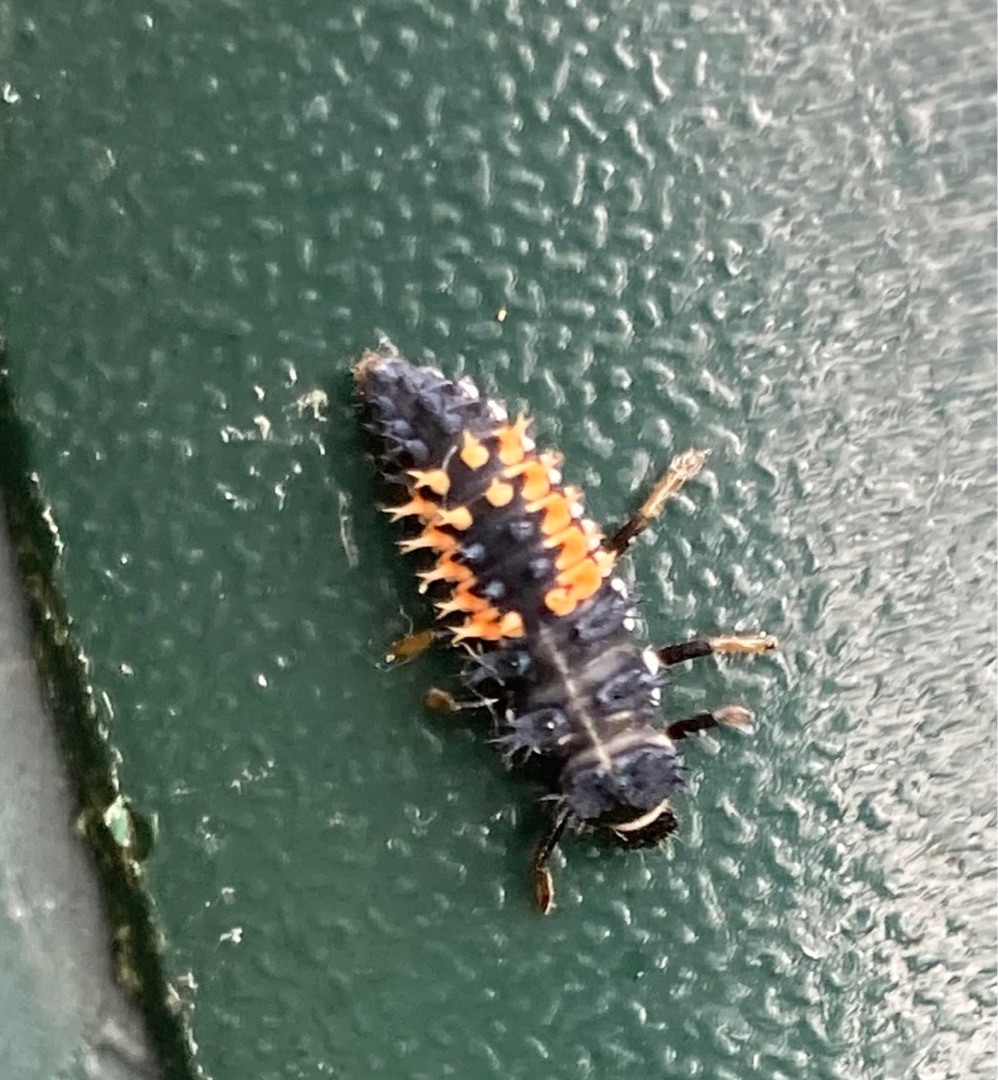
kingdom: Animalia
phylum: Arthropoda
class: Insecta
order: Coleoptera
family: Coccinellidae
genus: Harmonia
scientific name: Harmonia axyridis
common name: Harlekinmariehøne
